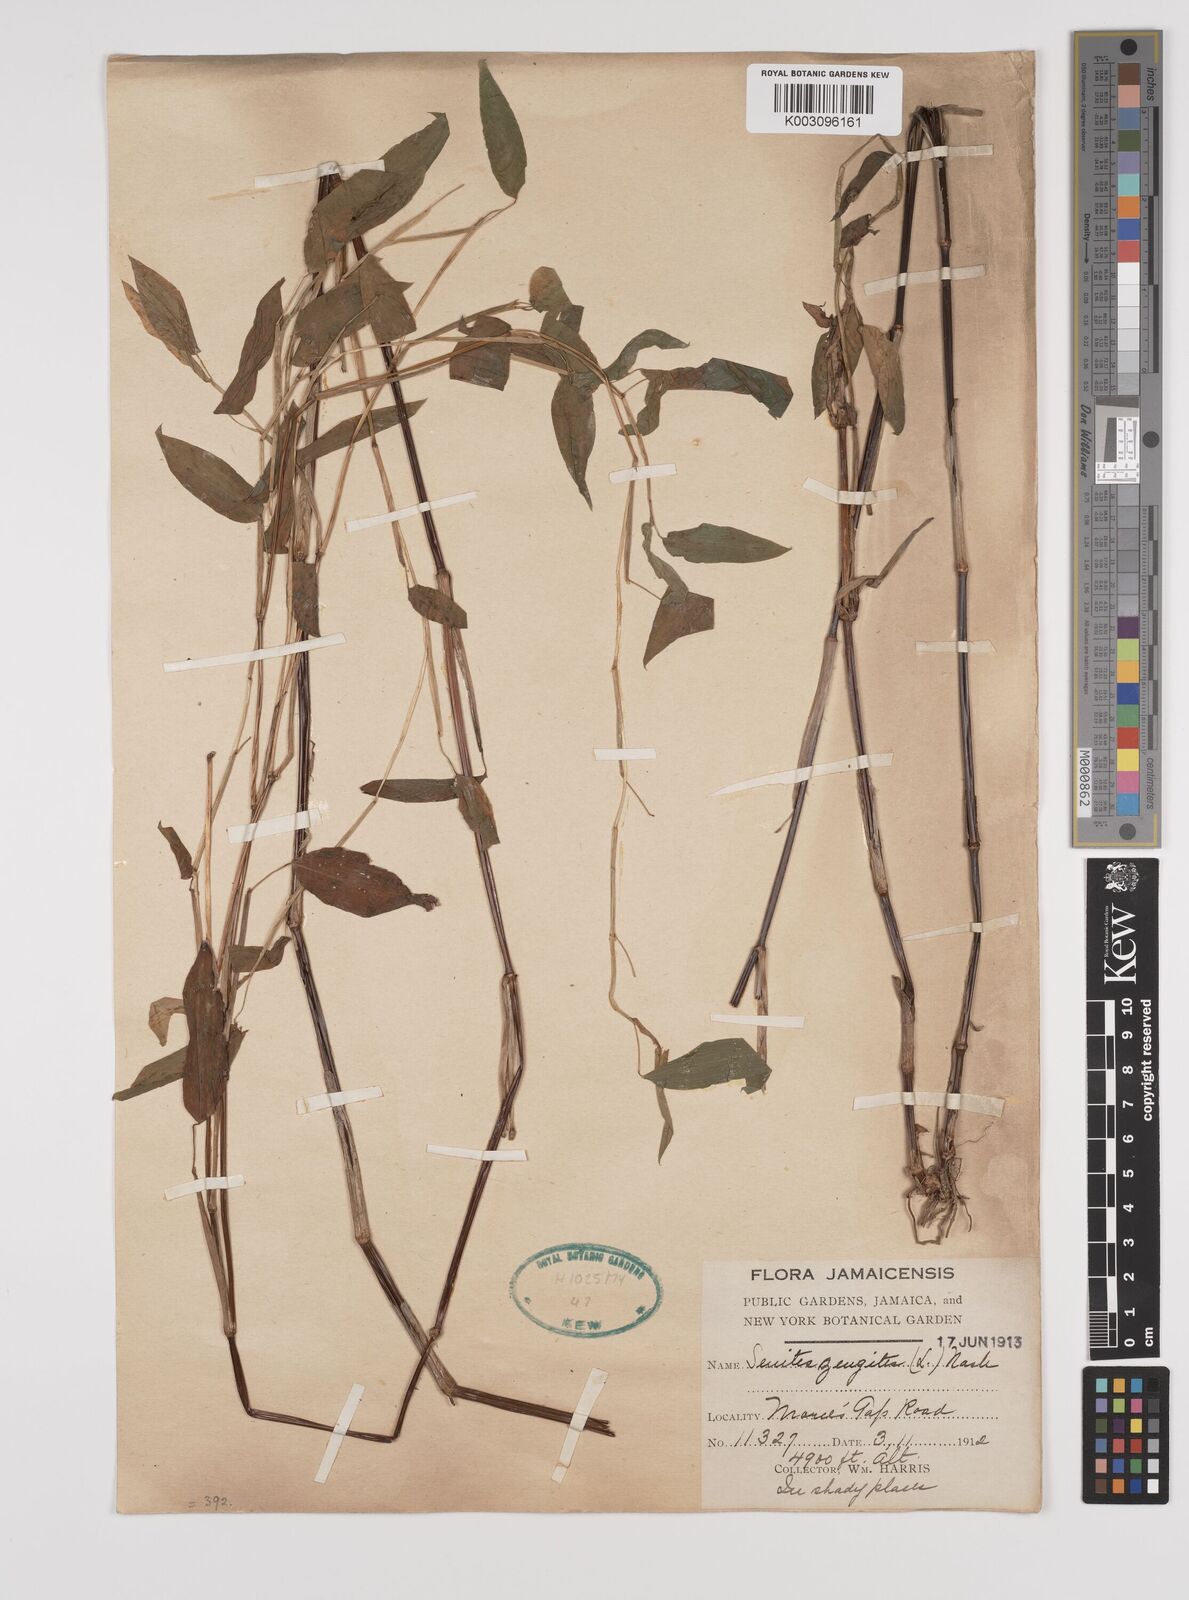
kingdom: Plantae
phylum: Tracheophyta
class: Liliopsida
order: Poales
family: Poaceae
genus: Zeugites
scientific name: Zeugites americanus
